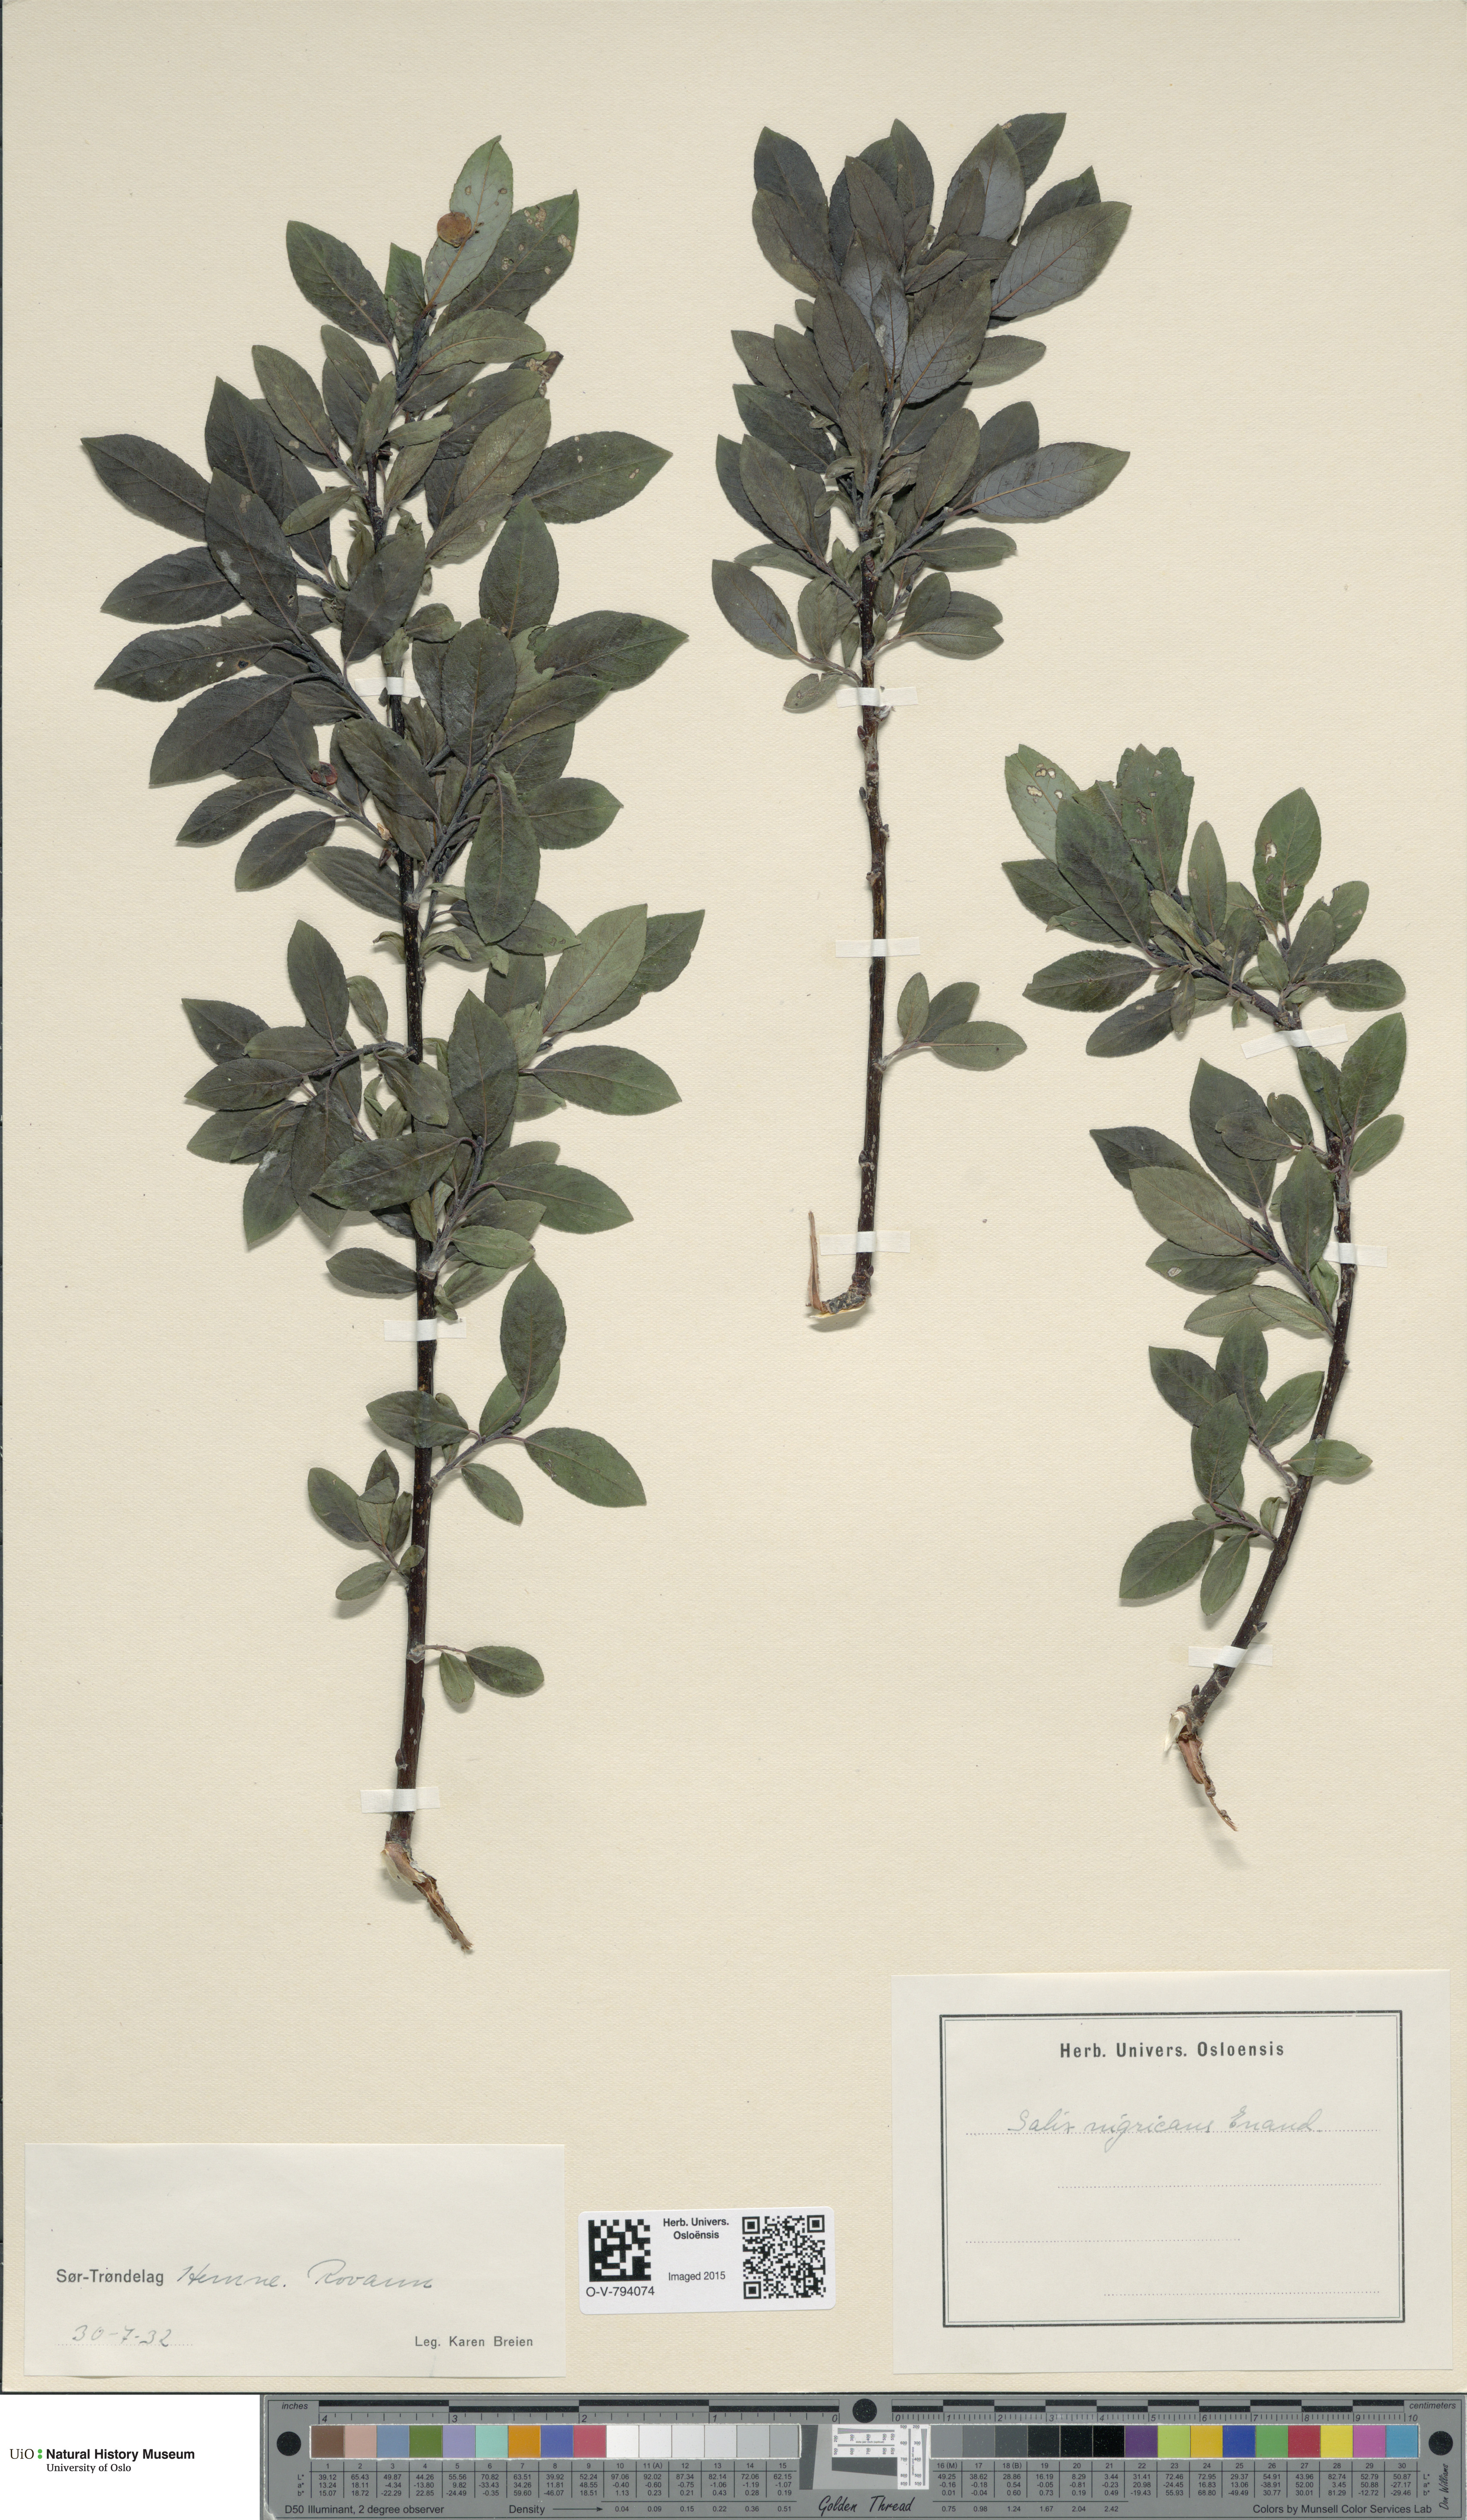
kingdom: Plantae
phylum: Tracheophyta
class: Magnoliopsida
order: Malpighiales
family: Salicaceae
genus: Salix
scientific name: Salix myrsinifolia
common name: Dark-leaved willow
